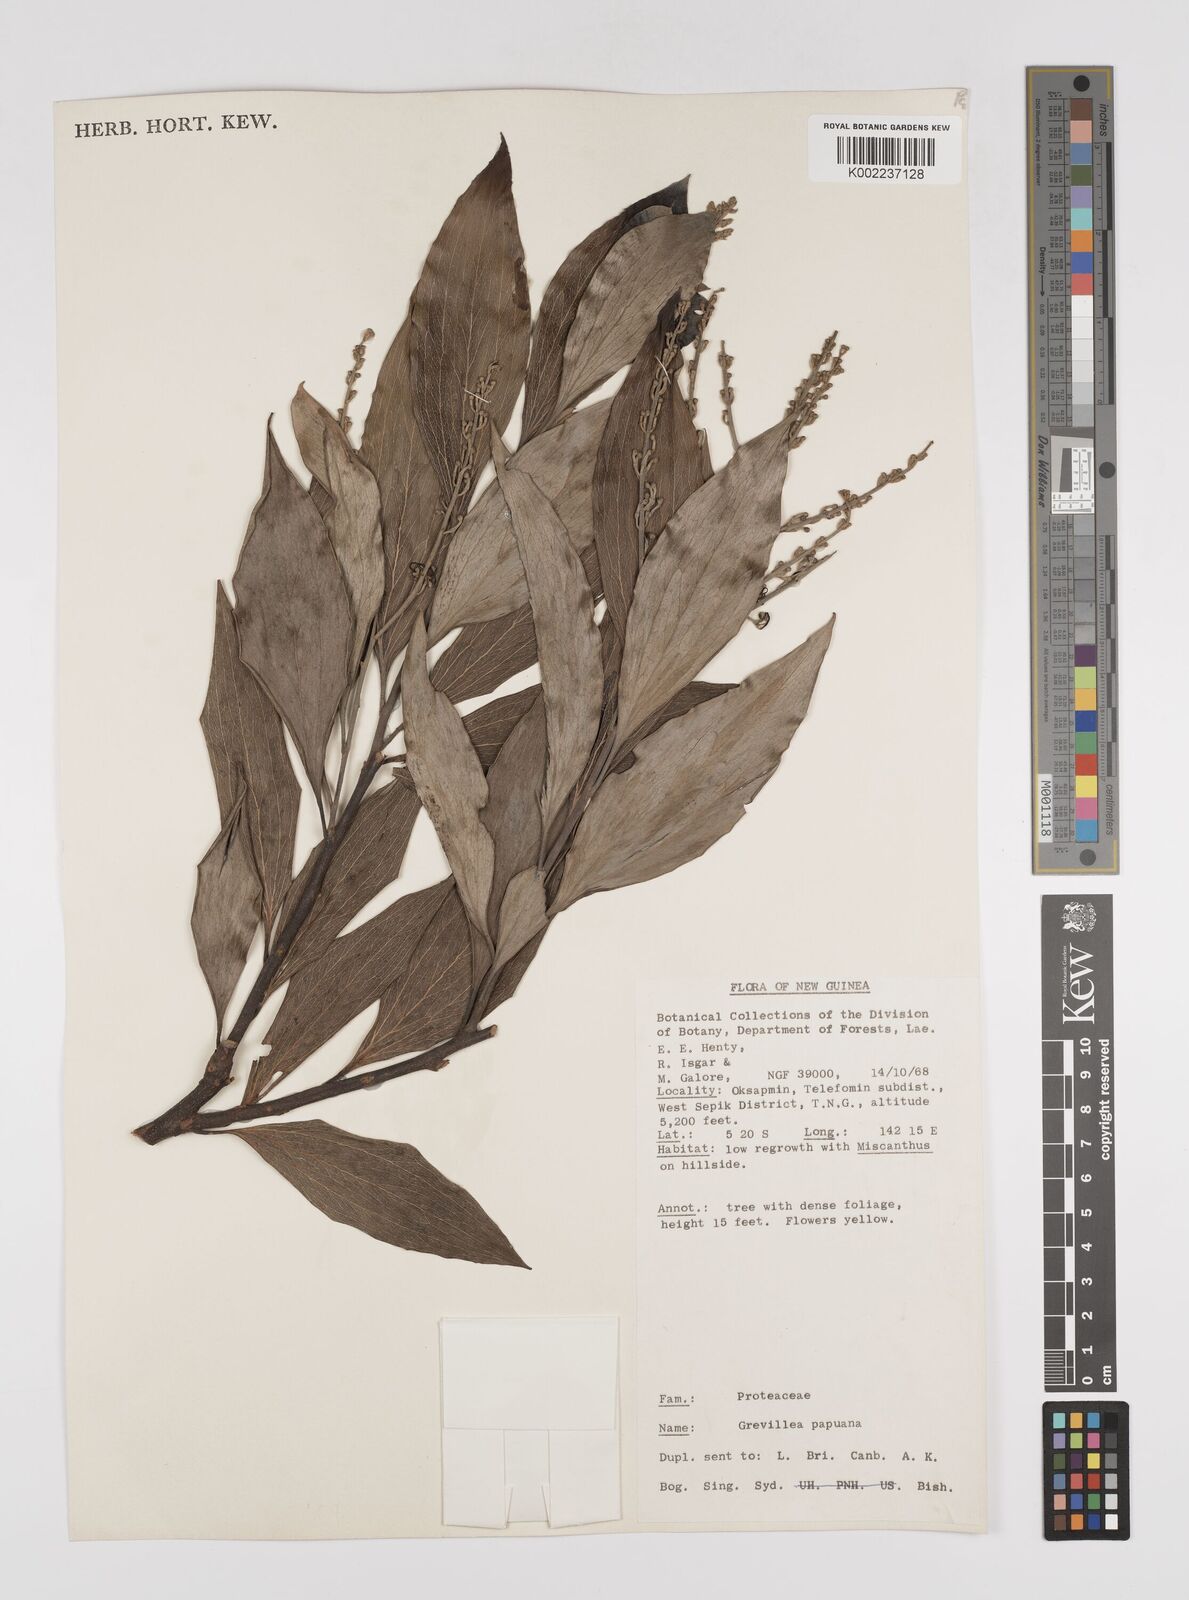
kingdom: Plantae
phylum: Tracheophyta
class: Magnoliopsida
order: Proteales
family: Proteaceae
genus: Grevillea
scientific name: Grevillea papuana
